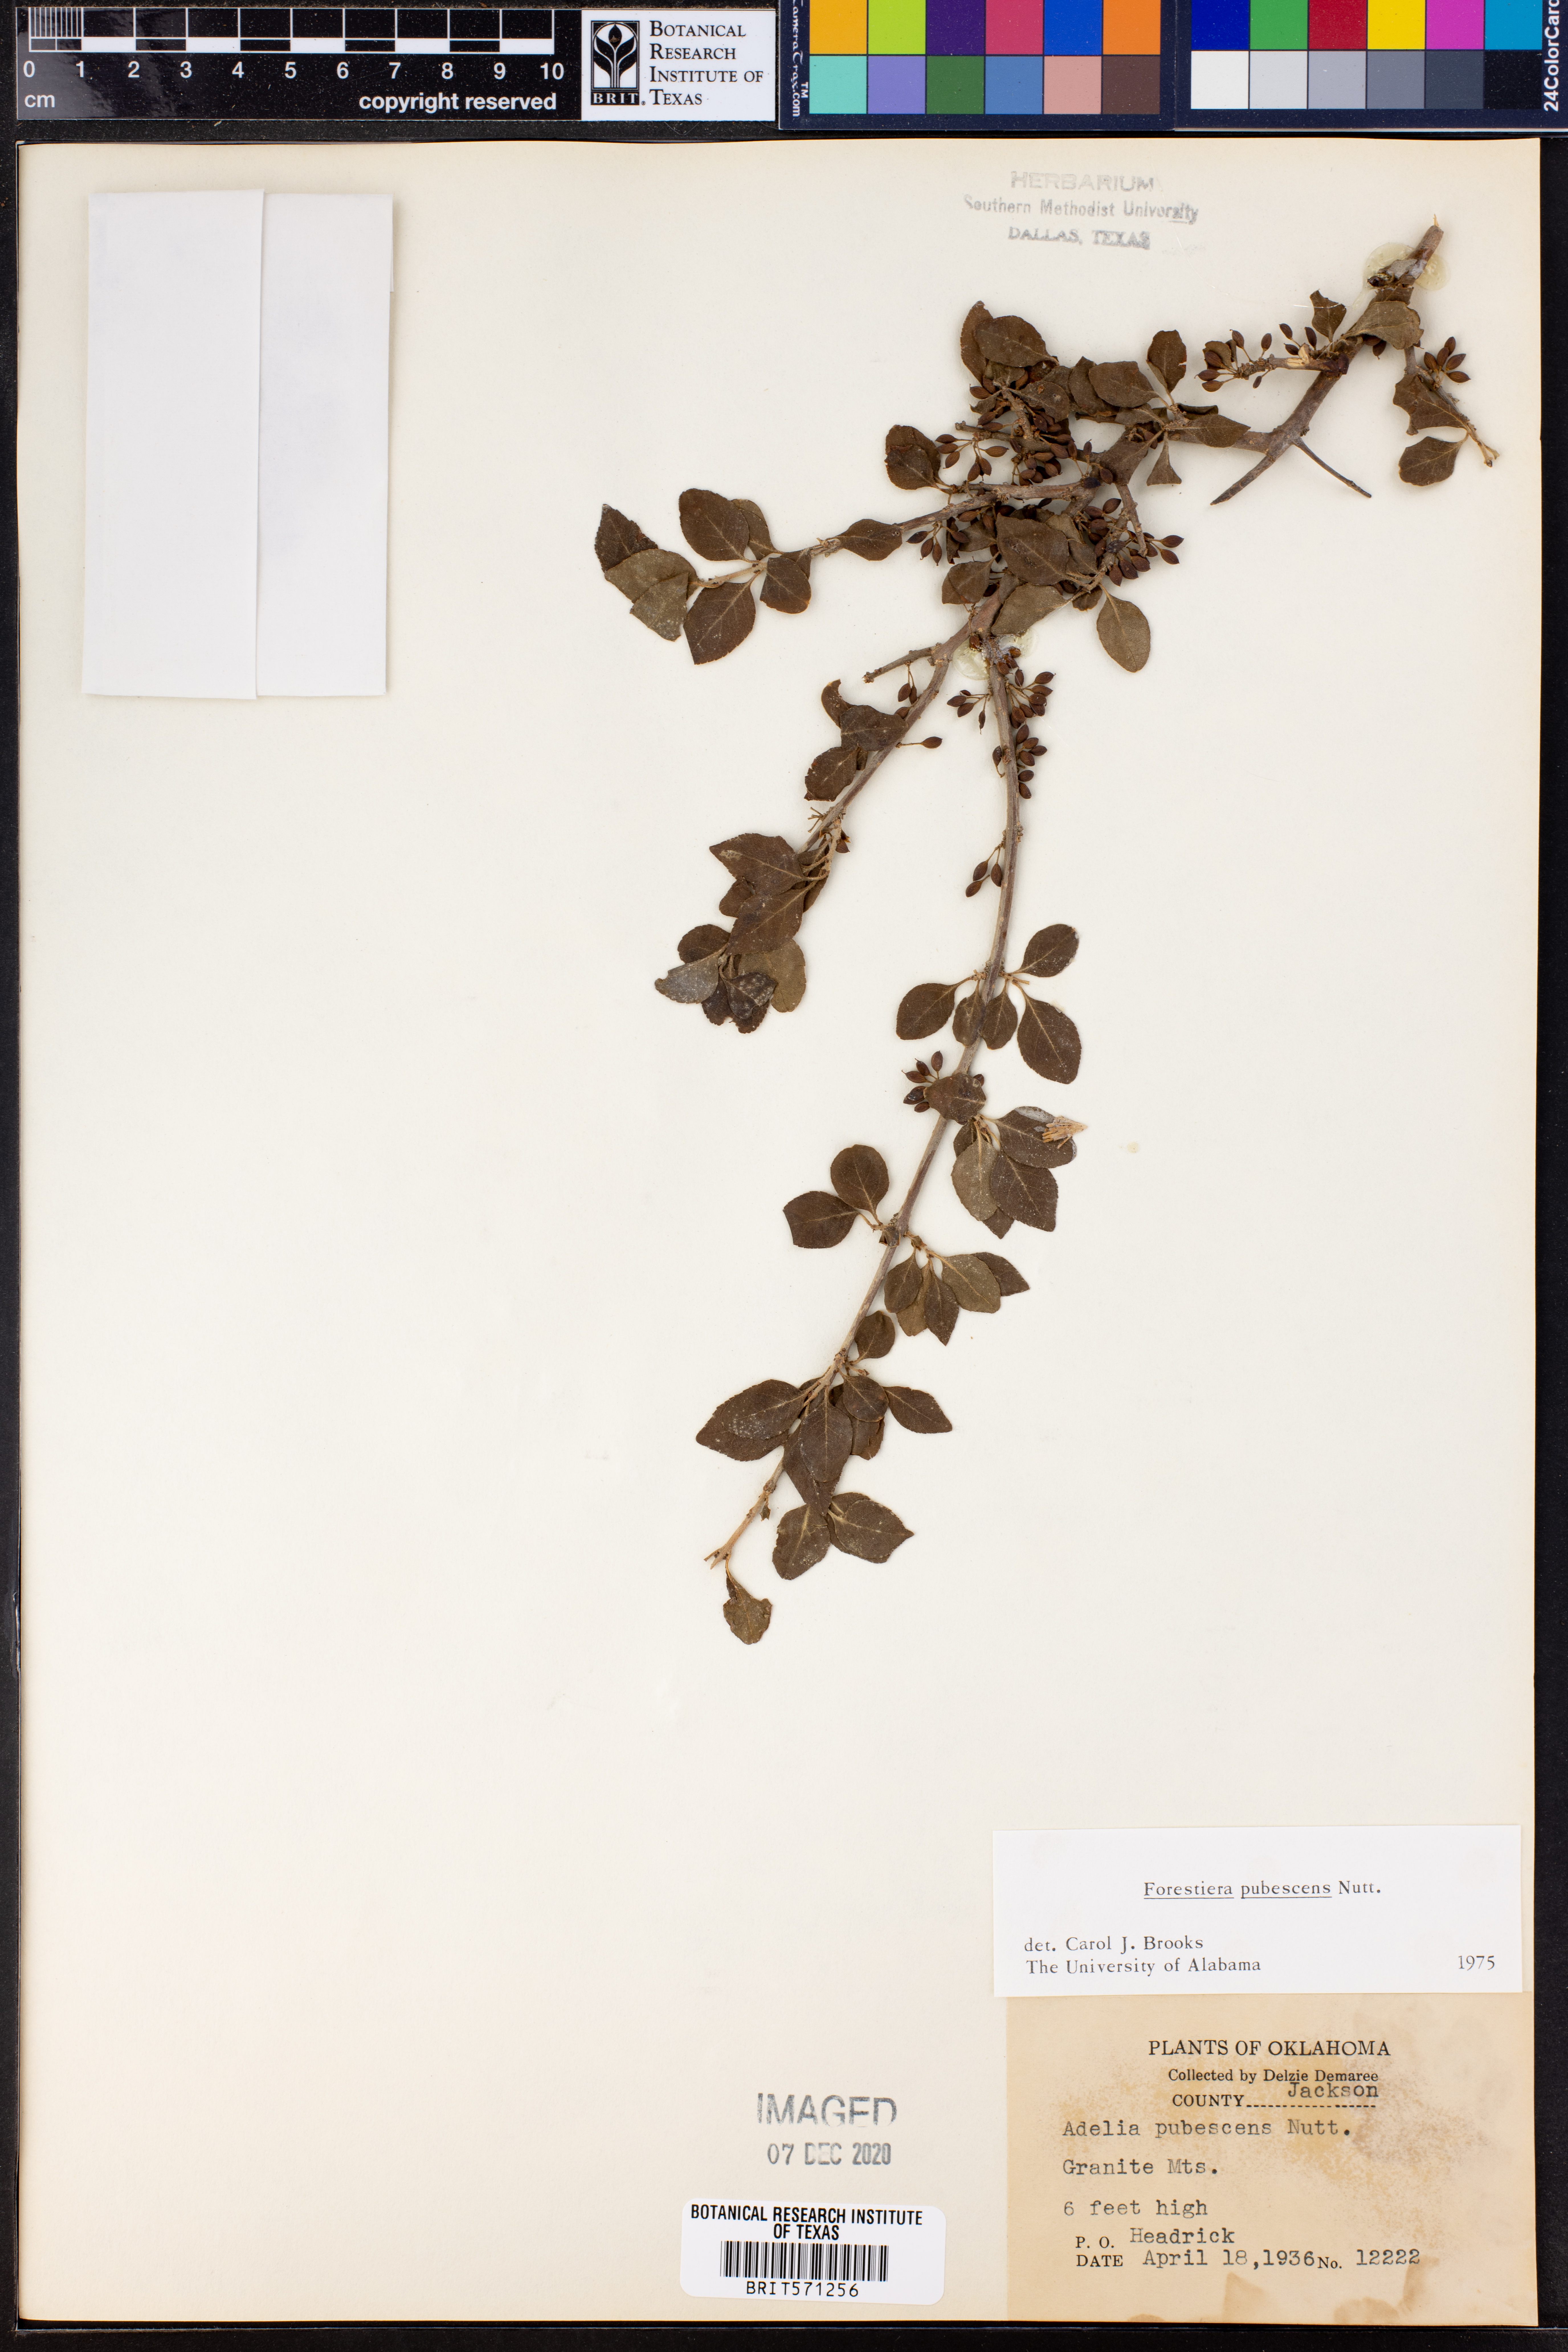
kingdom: Plantae
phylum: Tracheophyta
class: Magnoliopsida
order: Lamiales
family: Oleaceae
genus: Forestiera
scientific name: Forestiera pubescens
